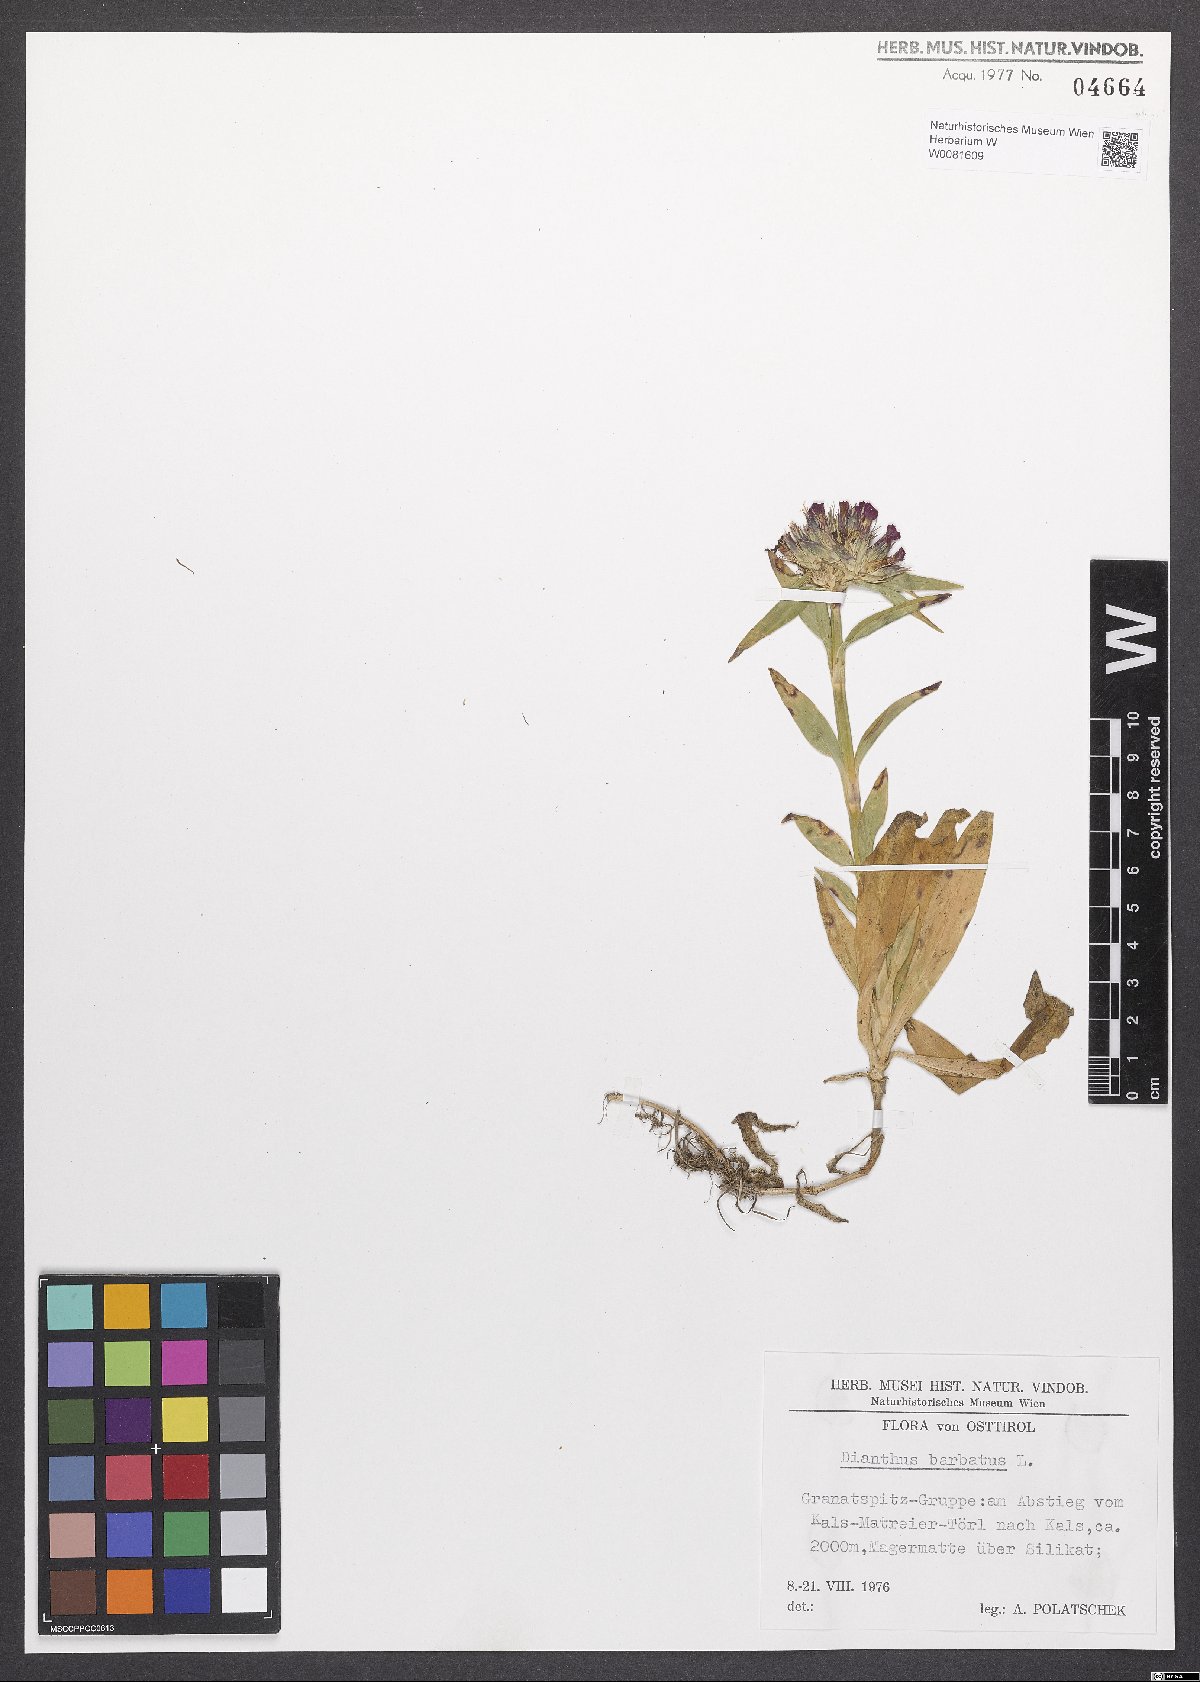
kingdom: Plantae
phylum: Tracheophyta
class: Magnoliopsida
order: Caryophyllales
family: Caryophyllaceae
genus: Dianthus
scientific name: Dianthus barbatus
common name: Sweet-william
